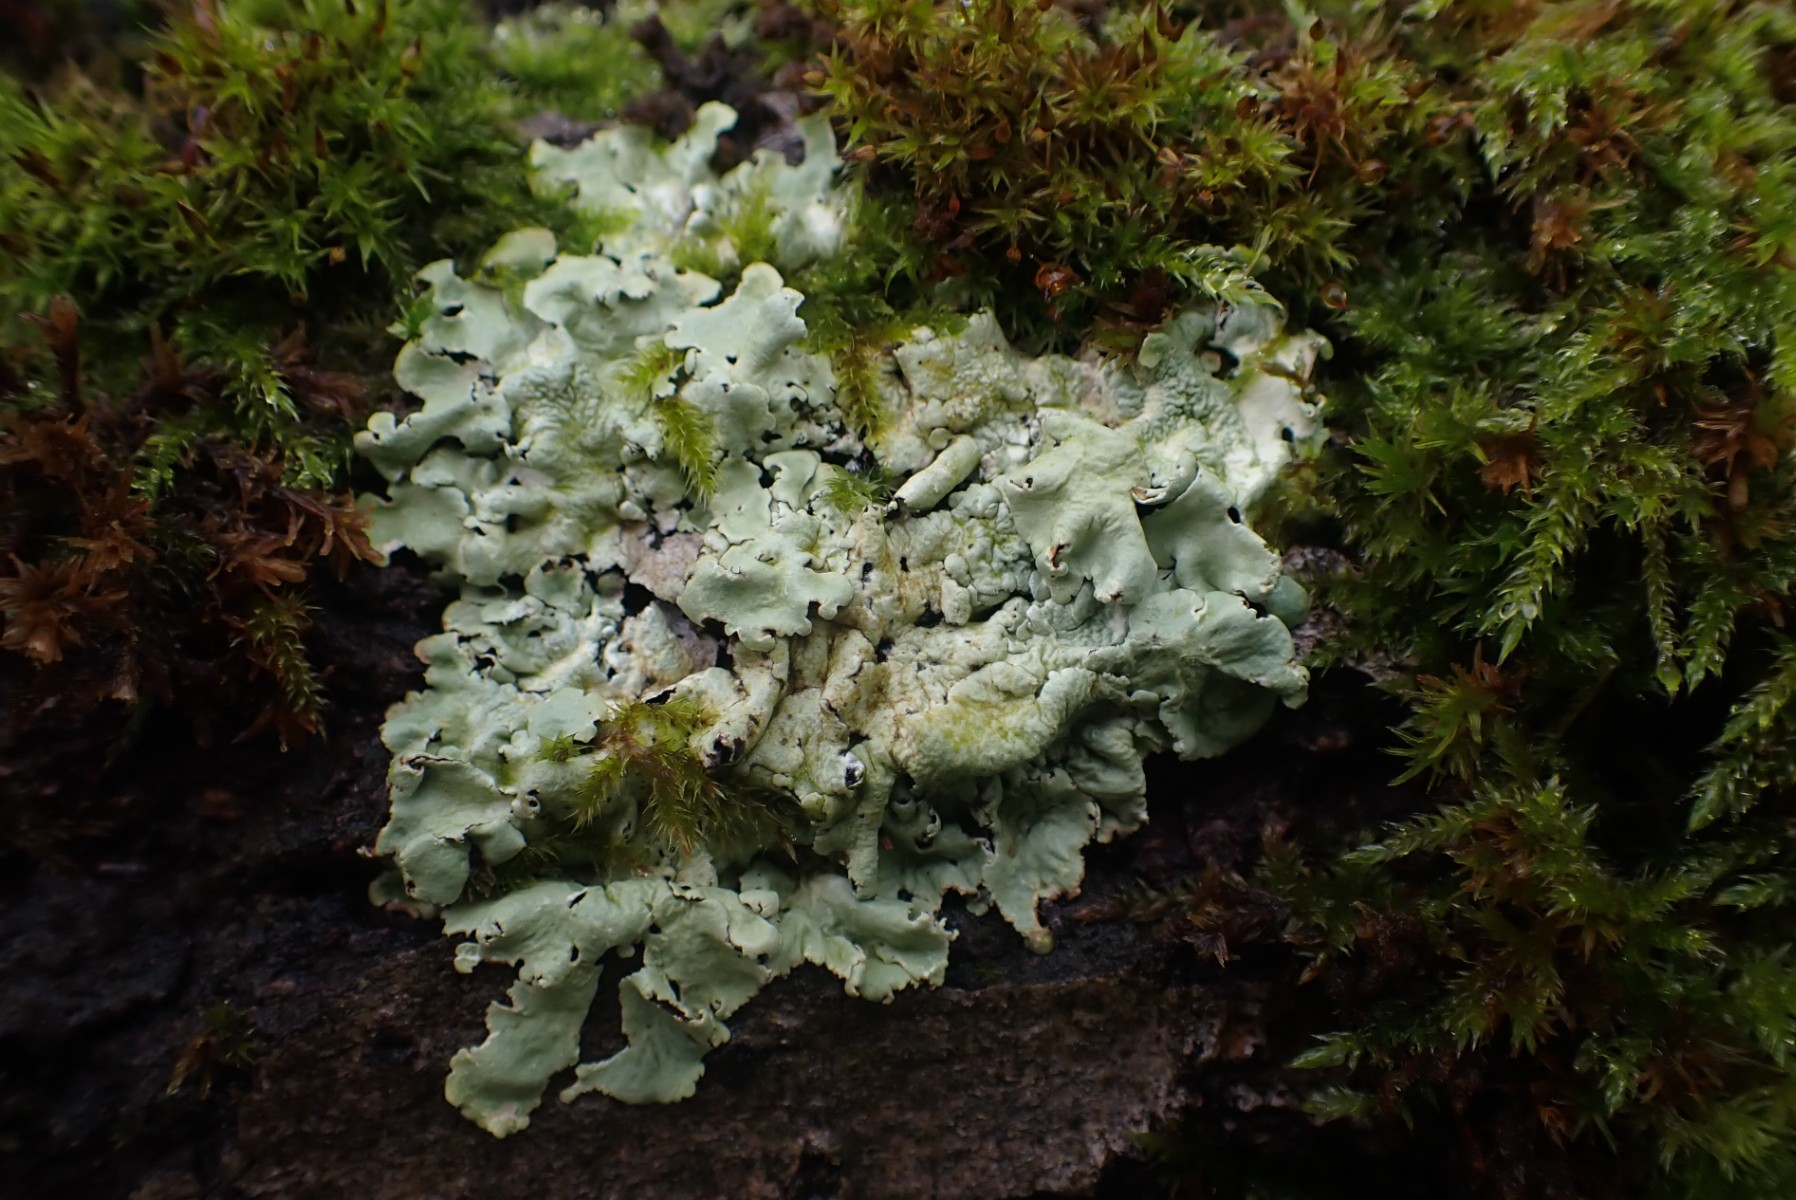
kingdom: Fungi
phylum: Ascomycota
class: Lecanoromycetes
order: Lecanorales
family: Parmeliaceae
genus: Flavoparmelia
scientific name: Flavoparmelia caperata
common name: gulgrøn skållav
